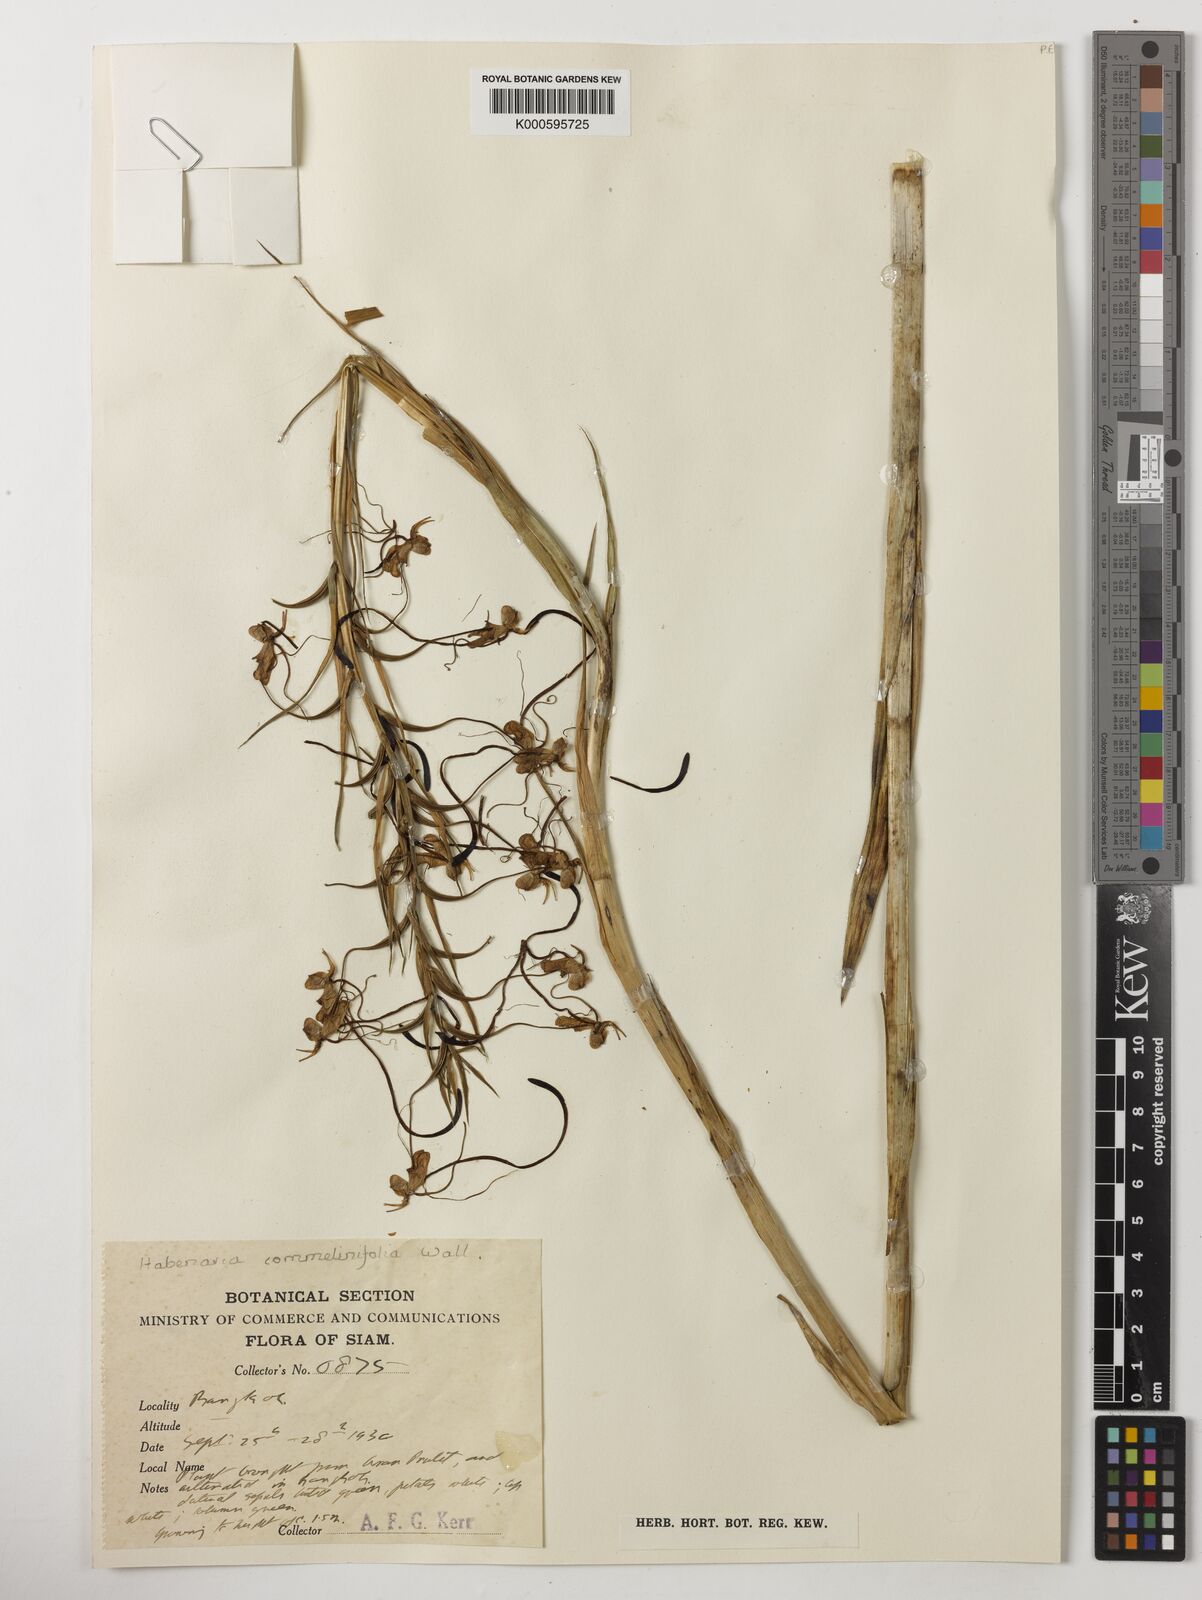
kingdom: Plantae
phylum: Tracheophyta
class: Liliopsida
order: Asparagales
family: Orchidaceae
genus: Habenaria
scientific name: Habenaria commelinifolia
